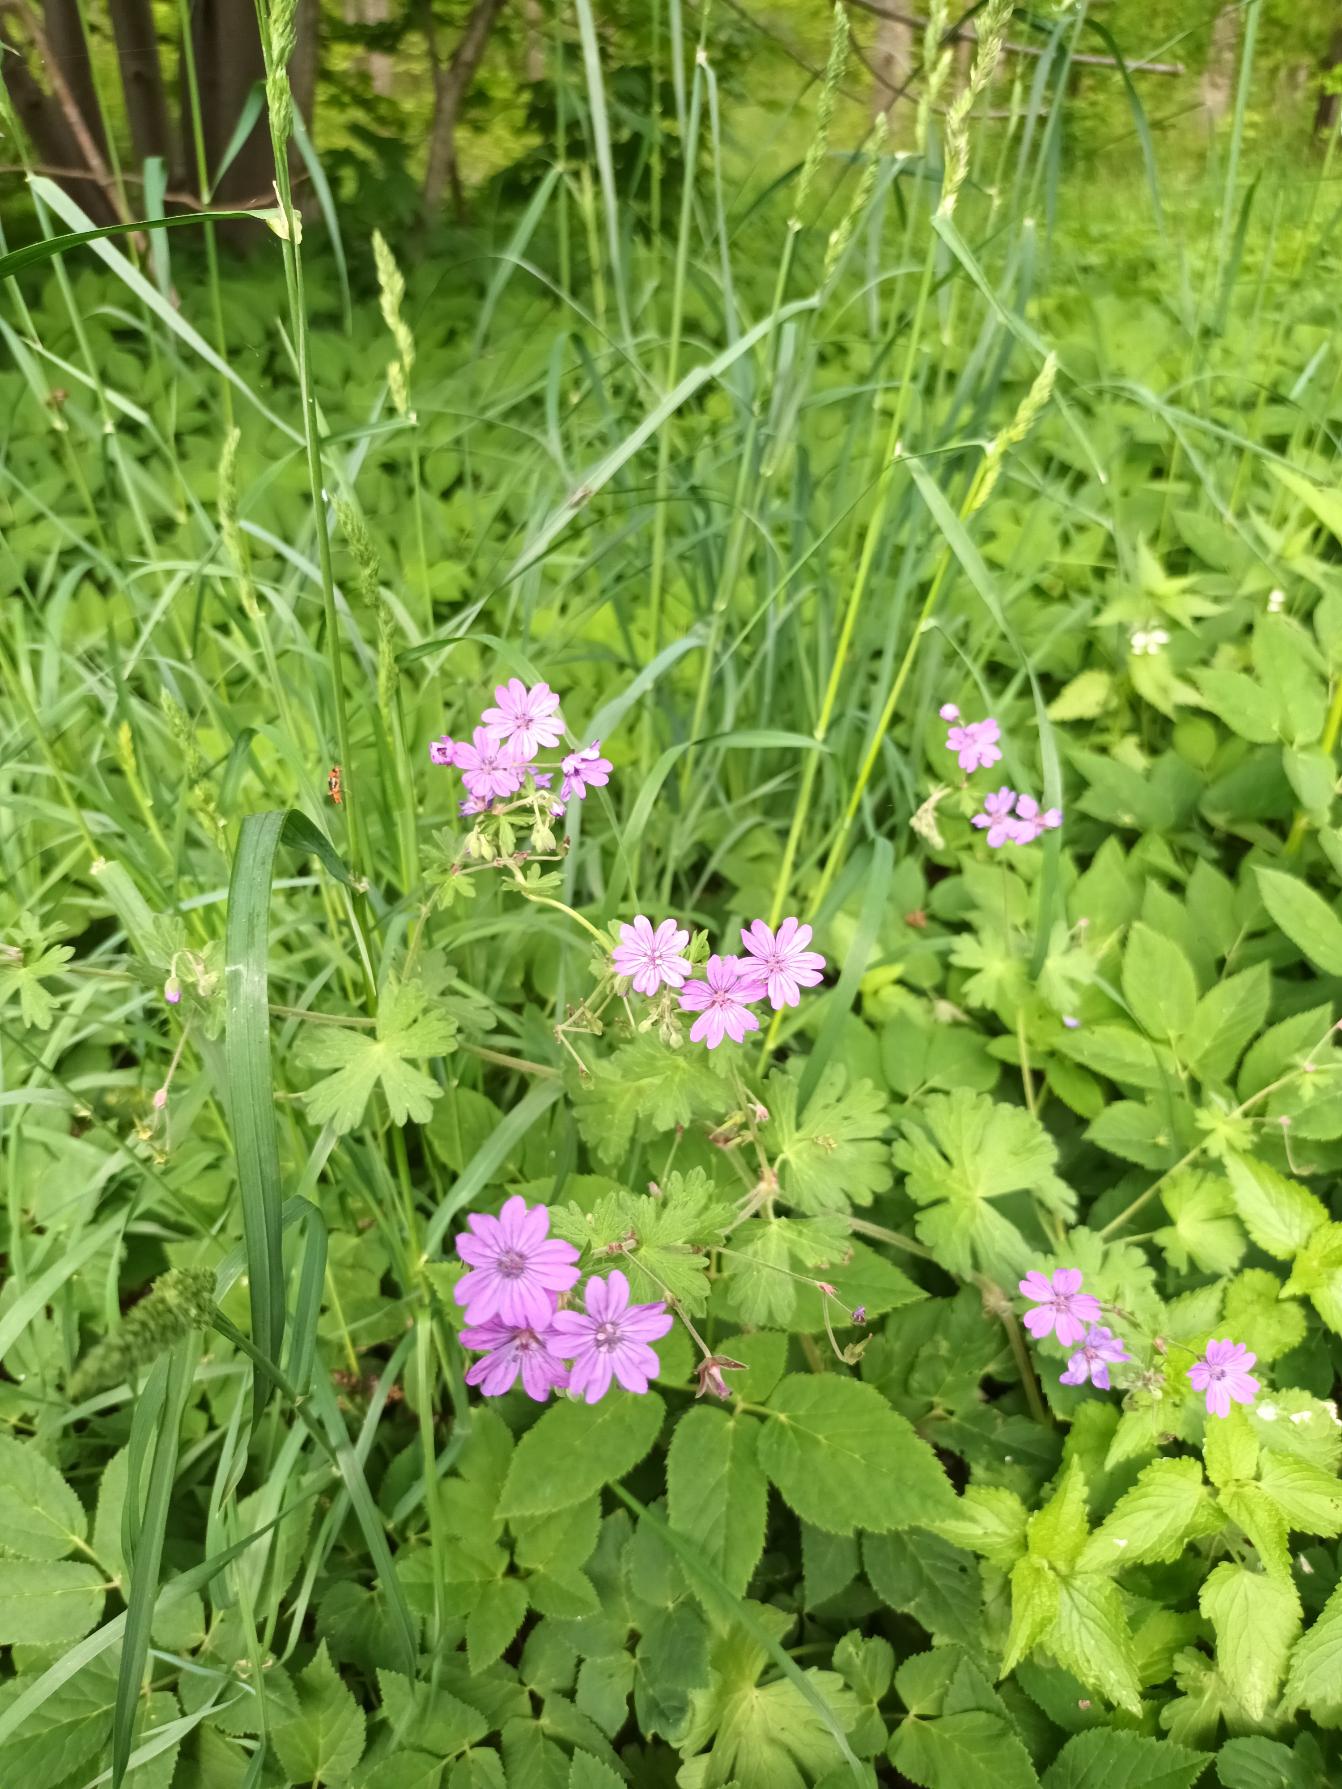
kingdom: Plantae
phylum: Tracheophyta
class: Magnoliopsida
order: Geraniales
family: Geraniaceae
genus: Geranium
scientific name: Geranium pyrenaicum
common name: Pyrenæisk storkenæb
